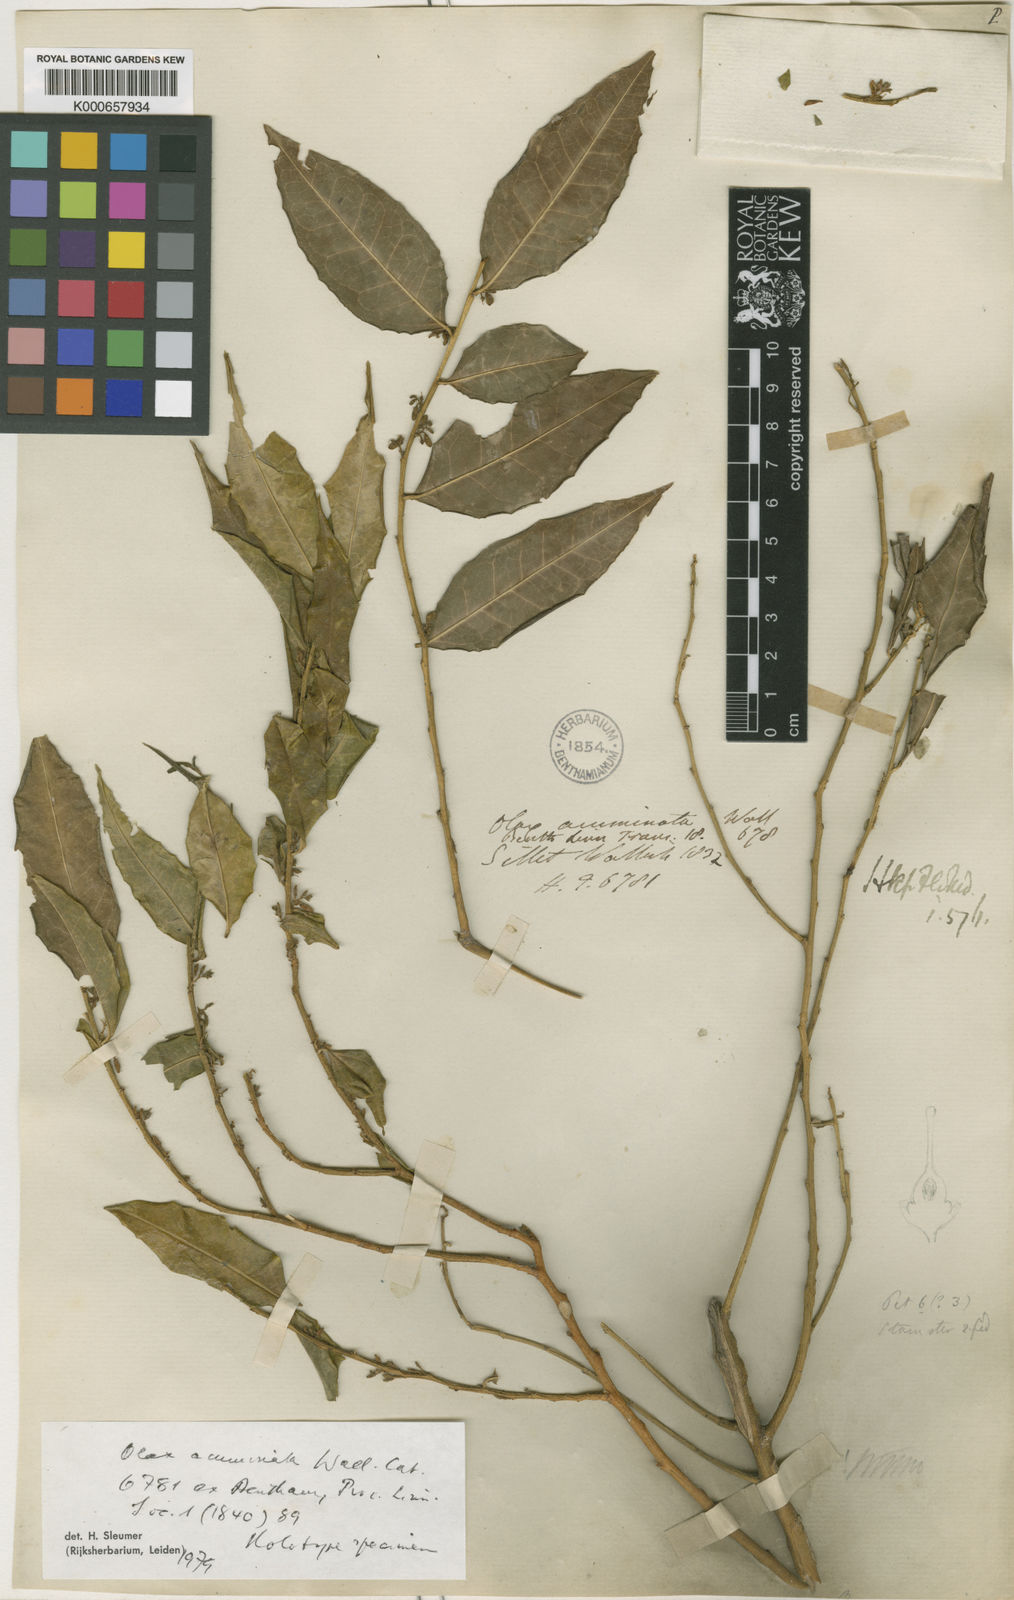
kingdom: Plantae
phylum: Tracheophyta
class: Magnoliopsida
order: Santalales
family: Olacaceae
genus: Olax
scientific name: Olax acuminata
